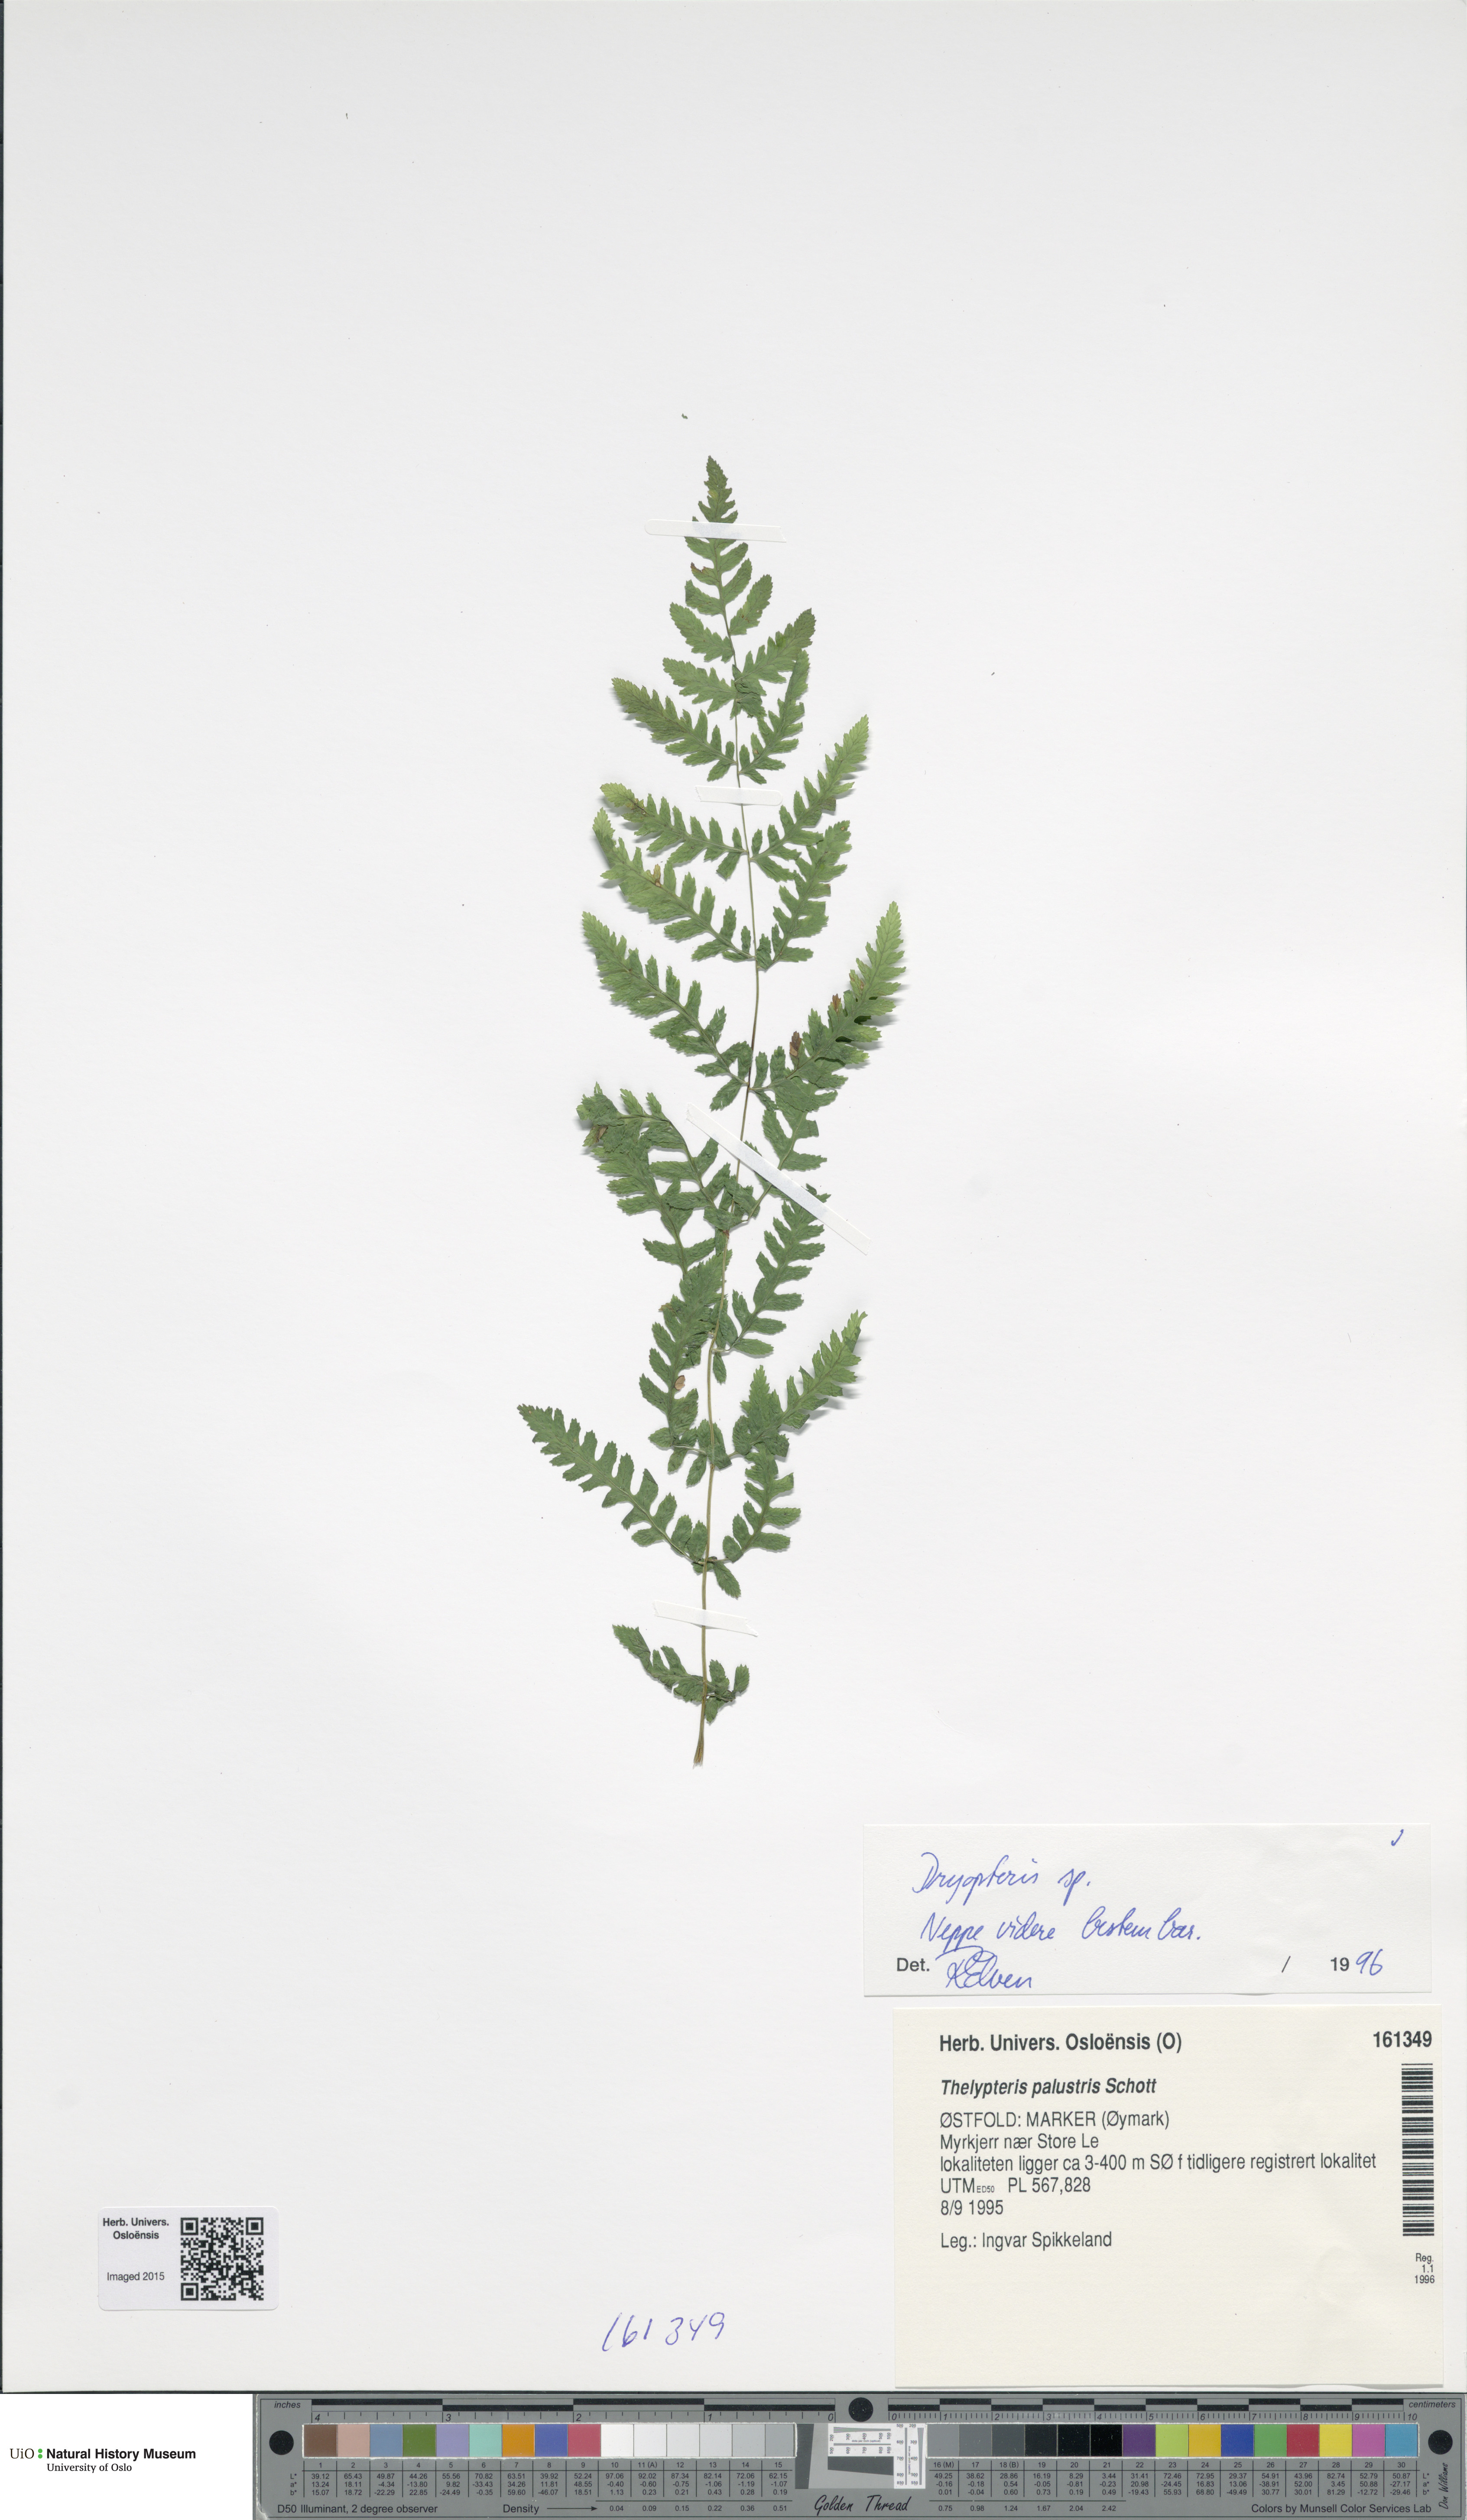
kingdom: Plantae
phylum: Tracheophyta
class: Polypodiopsida
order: Polypodiales
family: Dryopteridaceae
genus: Dryopteris
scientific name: Dryopteris
